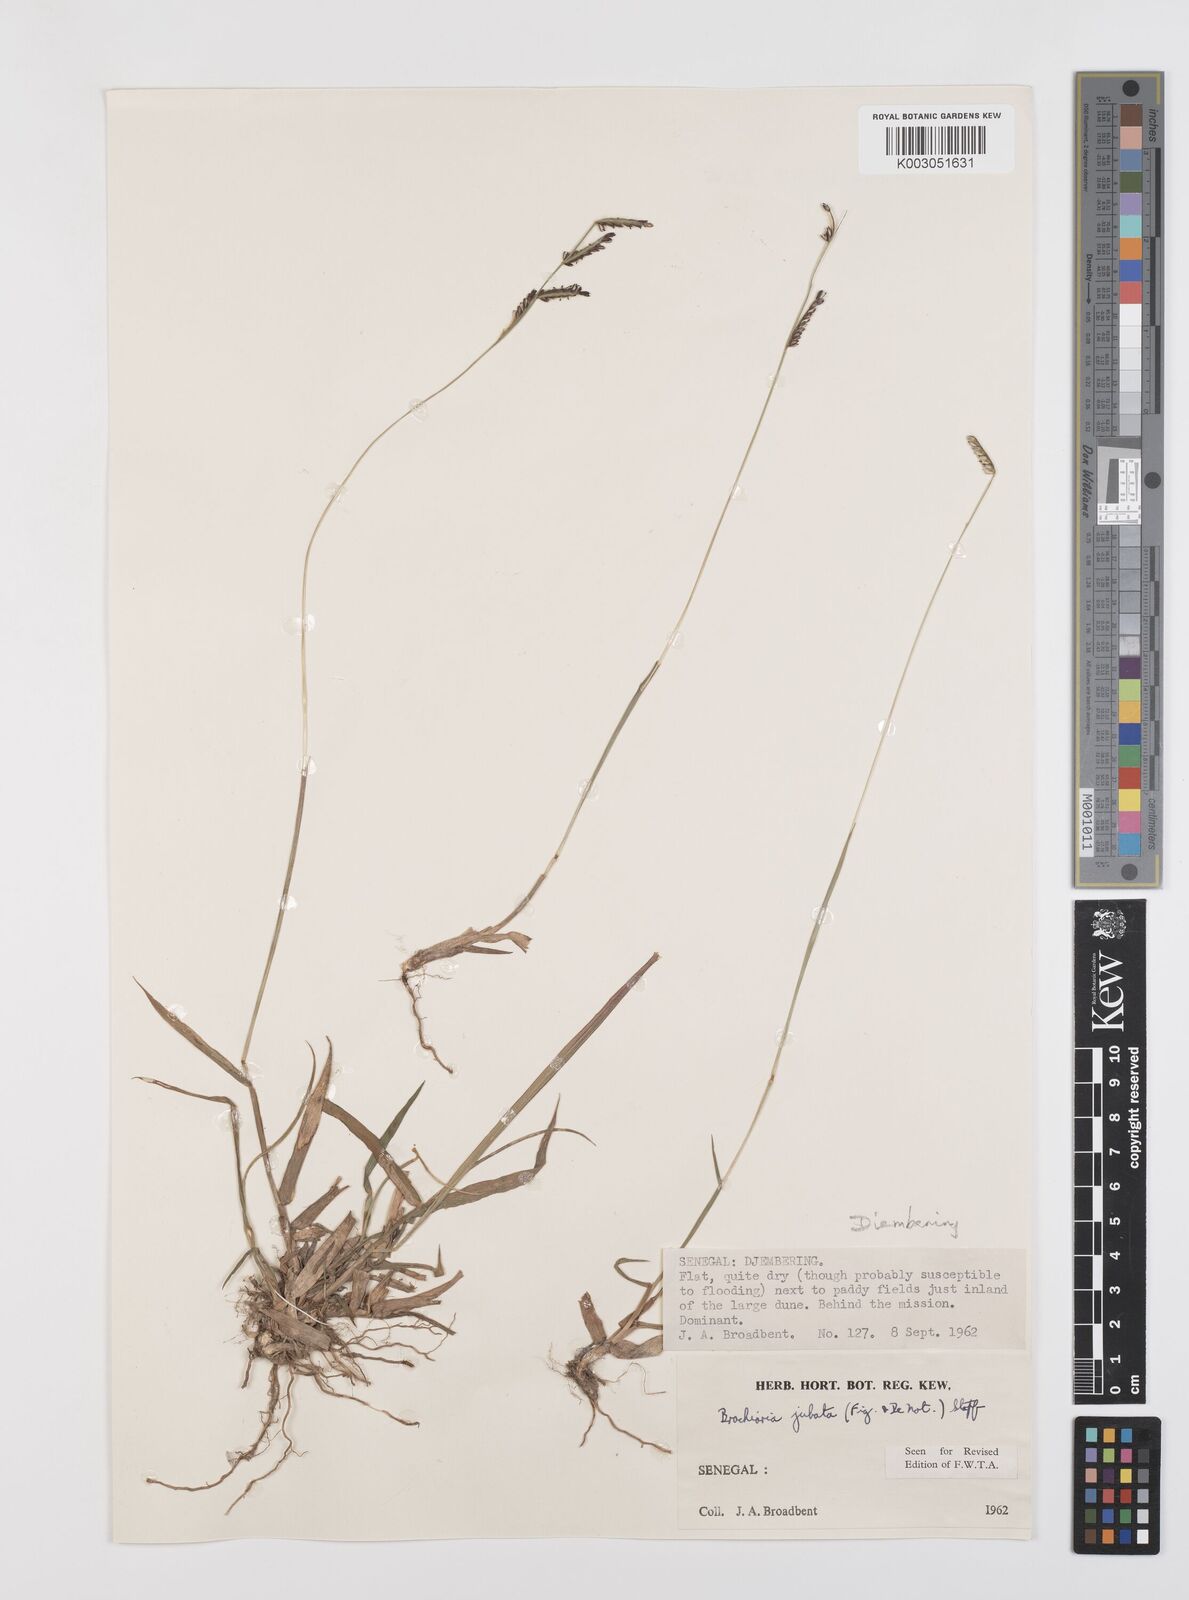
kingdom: Plantae
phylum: Tracheophyta
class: Liliopsida
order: Poales
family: Poaceae
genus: Urochloa
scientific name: Urochloa jubata
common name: Buffalograss
